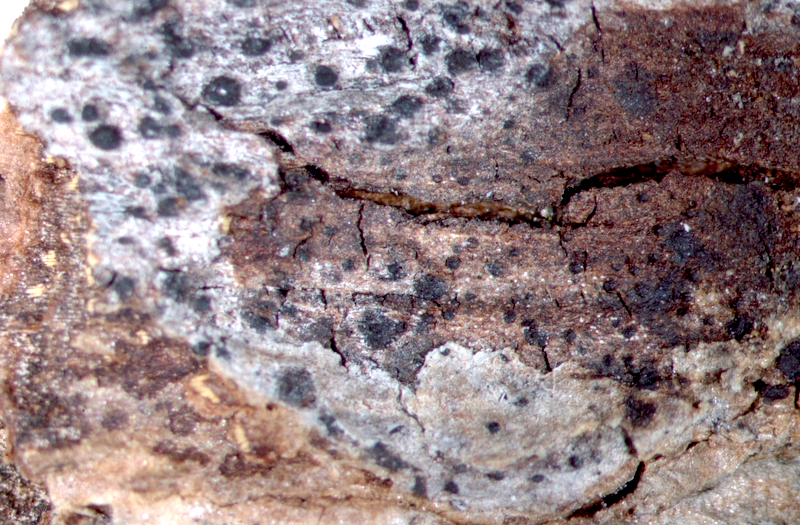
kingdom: Fungi
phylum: Ascomycota
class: Lecanoromycetes
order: Ostropales
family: Graphidaceae
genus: Phaeographis
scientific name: Phaeographis
